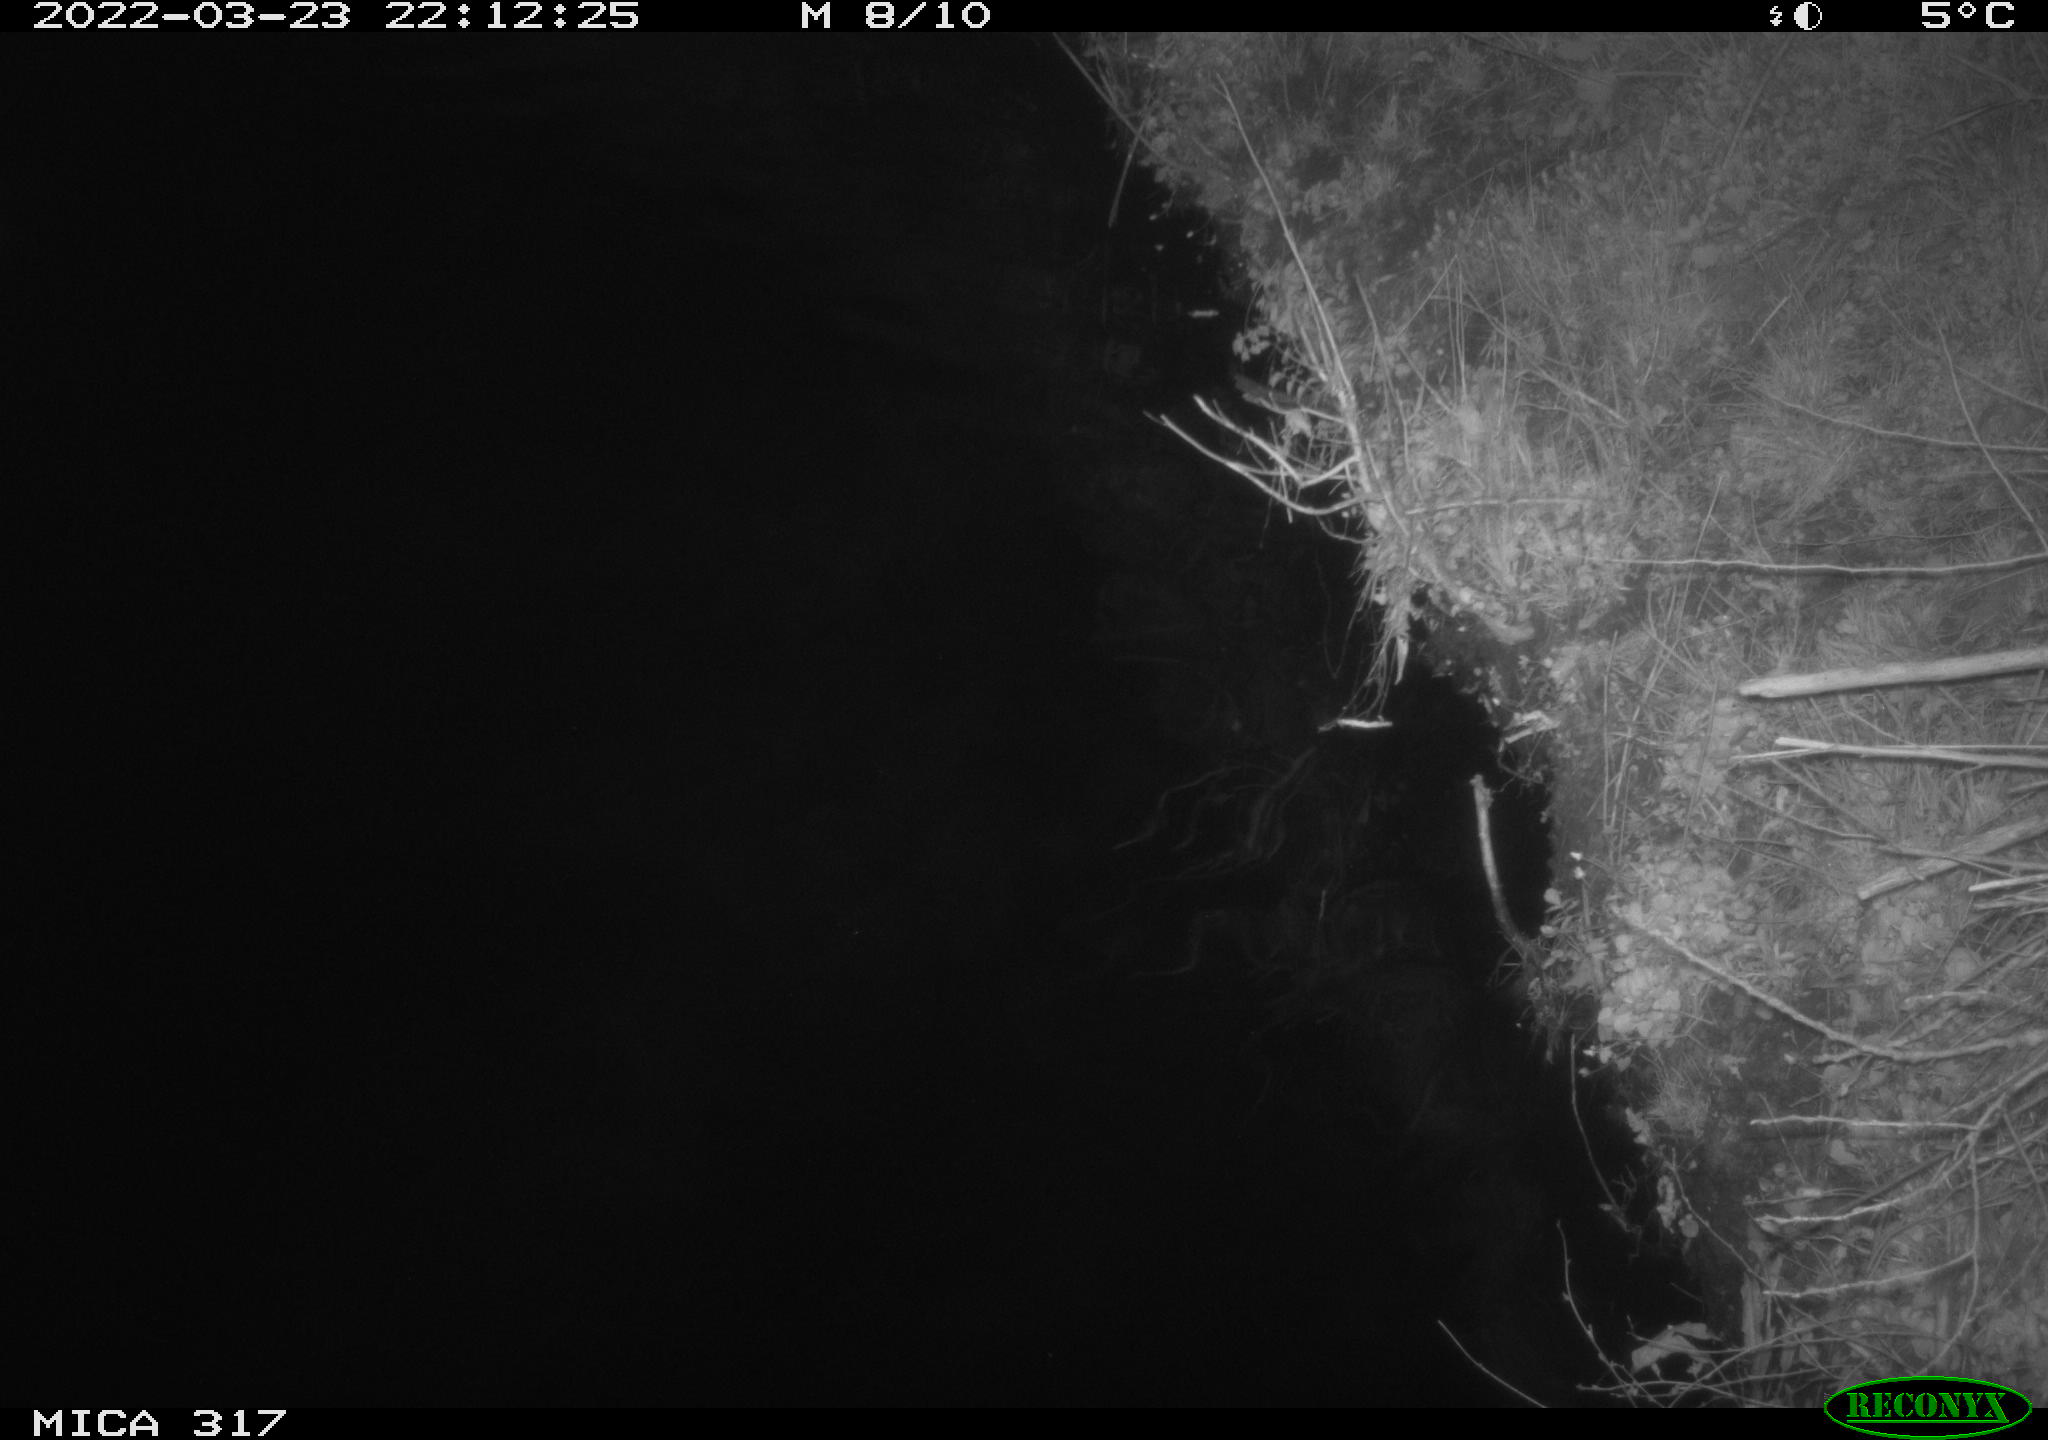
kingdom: Animalia
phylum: Chordata
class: Aves
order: Anseriformes
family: Anatidae
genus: Anas
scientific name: Anas platyrhynchos
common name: Mallard
